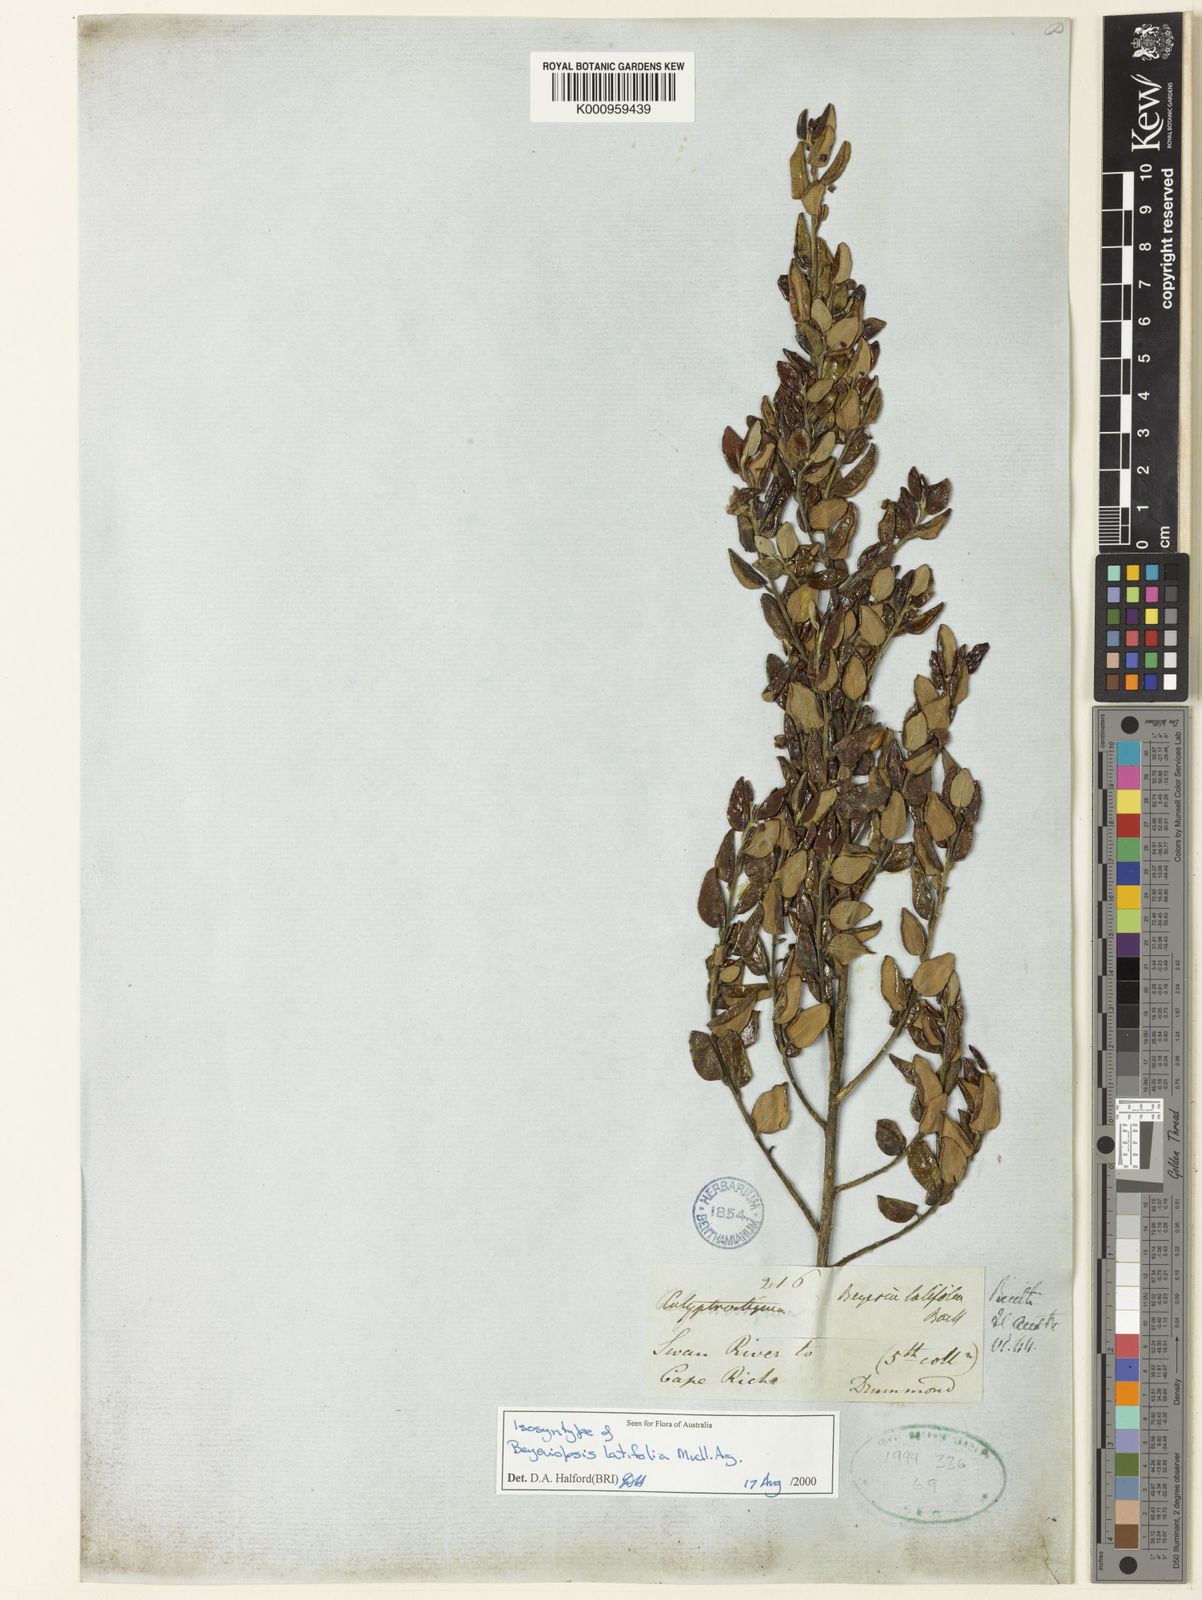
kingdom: Plantae
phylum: Tracheophyta
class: Magnoliopsida
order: Malpighiales
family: Euphorbiaceae
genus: Beyeria
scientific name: Beyeria
